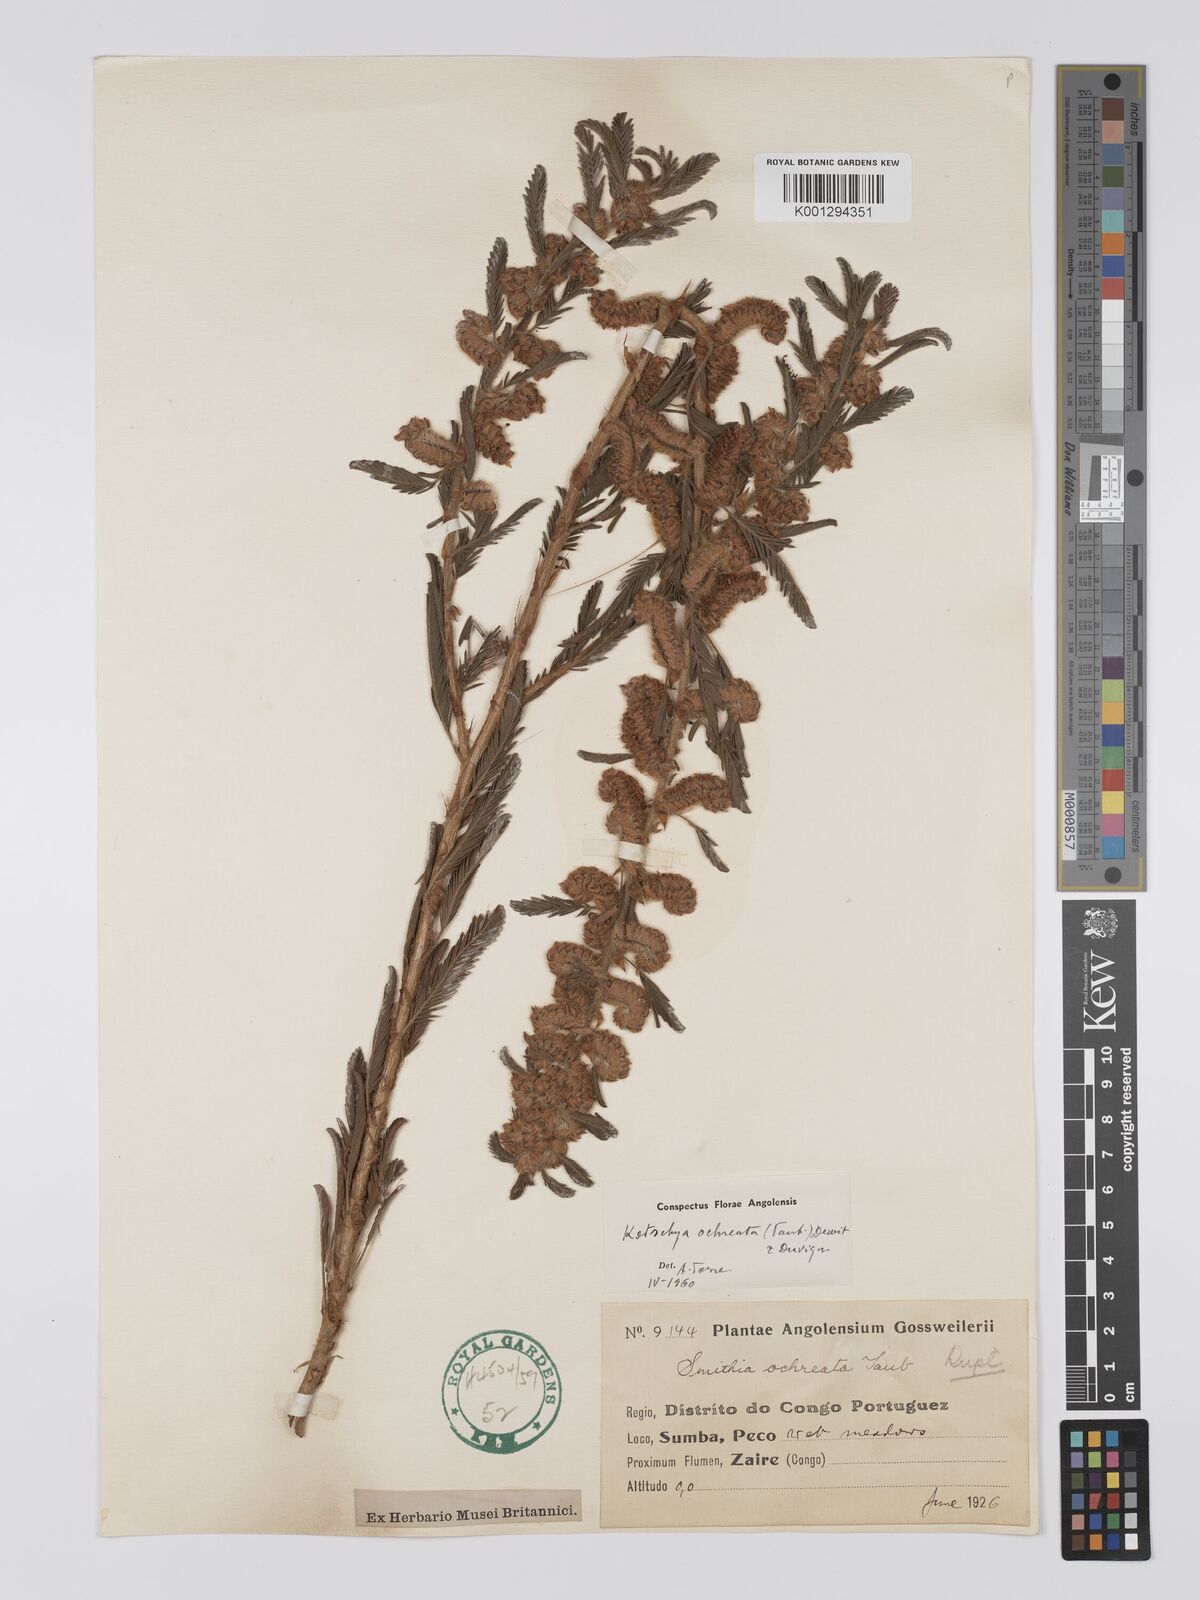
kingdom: Plantae
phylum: Tracheophyta
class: Magnoliopsida
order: Fabales
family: Fabaceae
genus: Kotschya
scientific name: Kotschya ochreata
